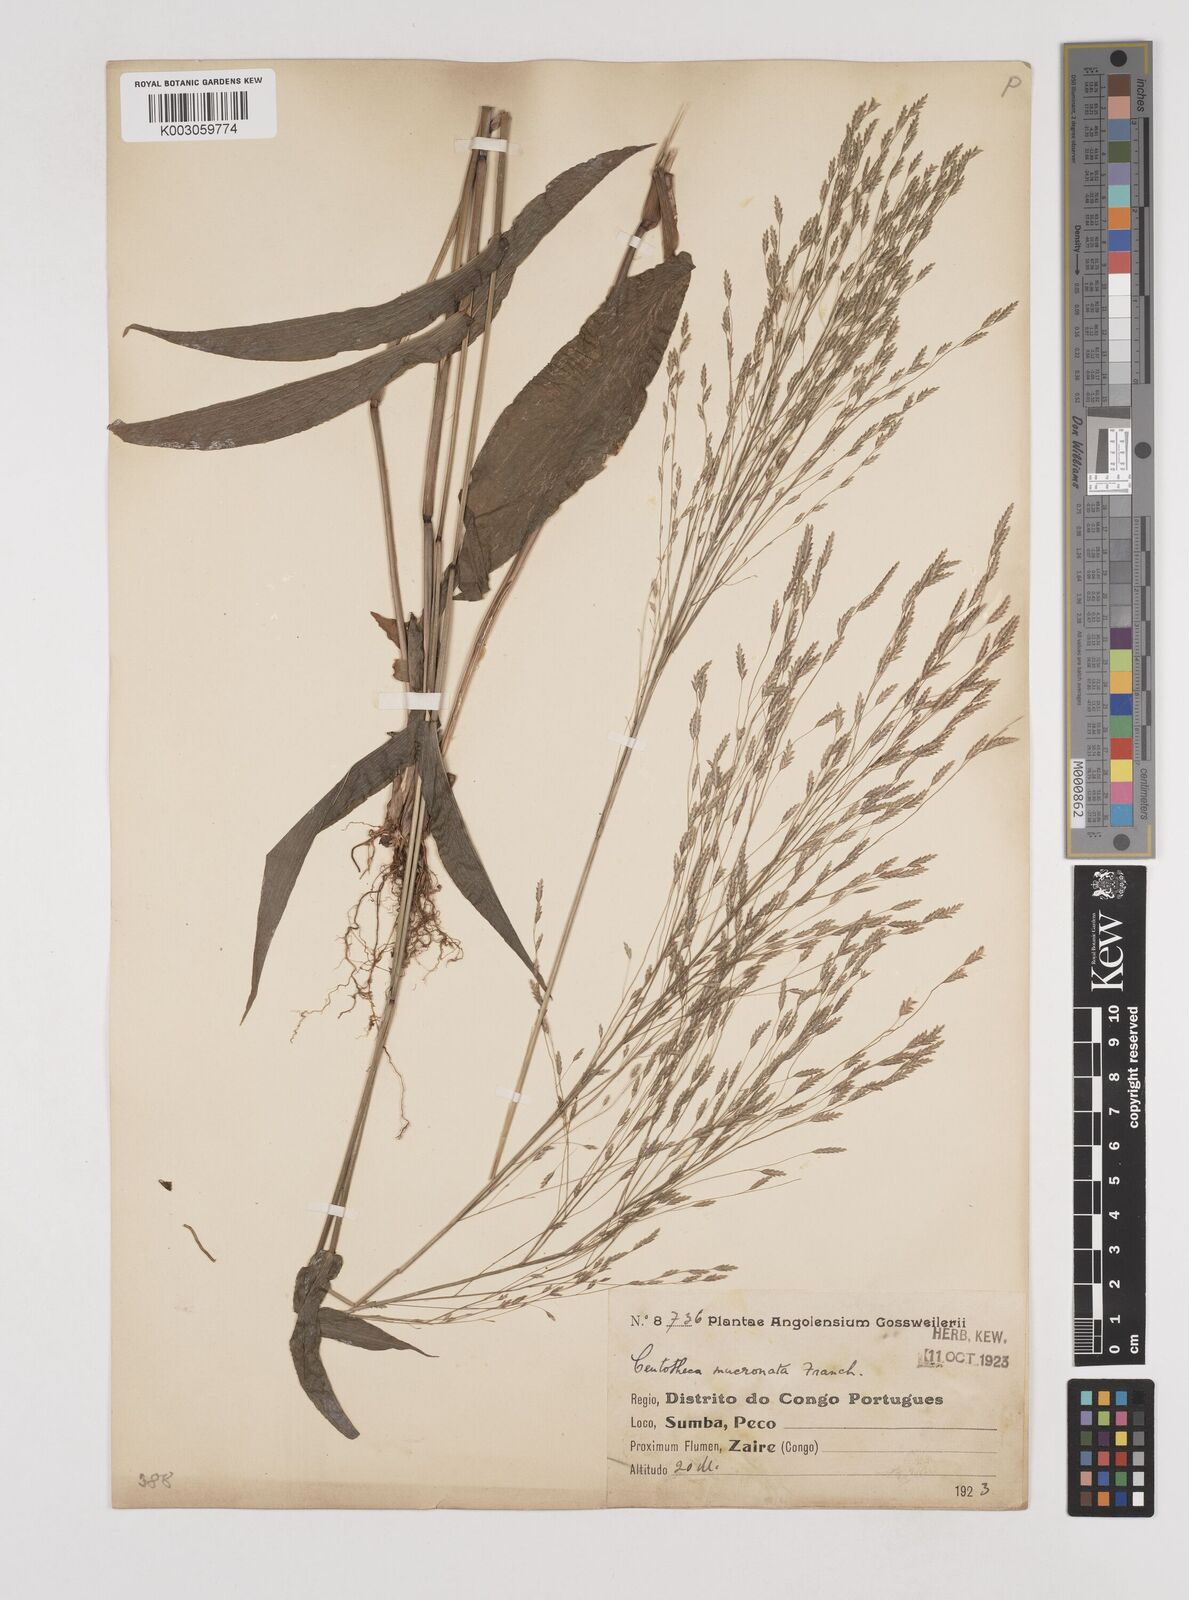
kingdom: Plantae
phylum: Tracheophyta
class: Liliopsida
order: Poales
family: Poaceae
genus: Megastachya
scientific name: Megastachya mucronata
